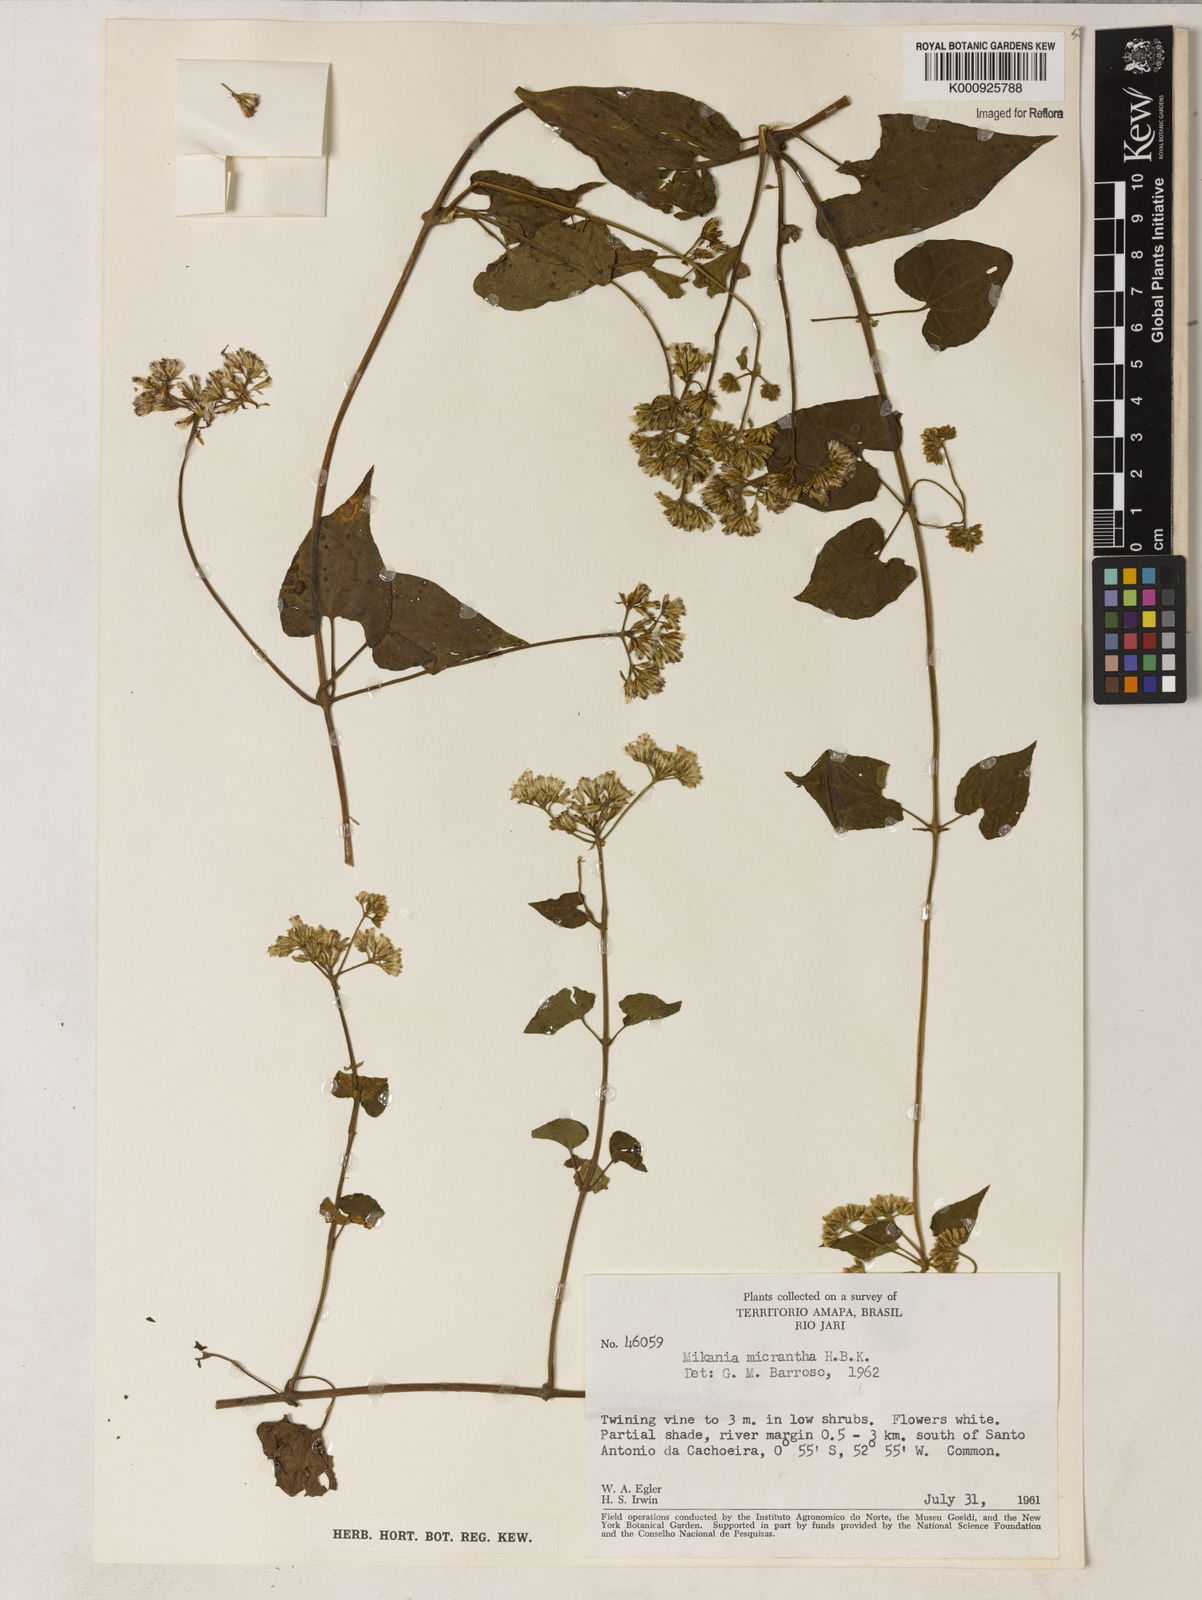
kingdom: Plantae
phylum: Tracheophyta
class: Magnoliopsida
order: Asterales
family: Asteraceae
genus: Mikania
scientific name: Mikania
